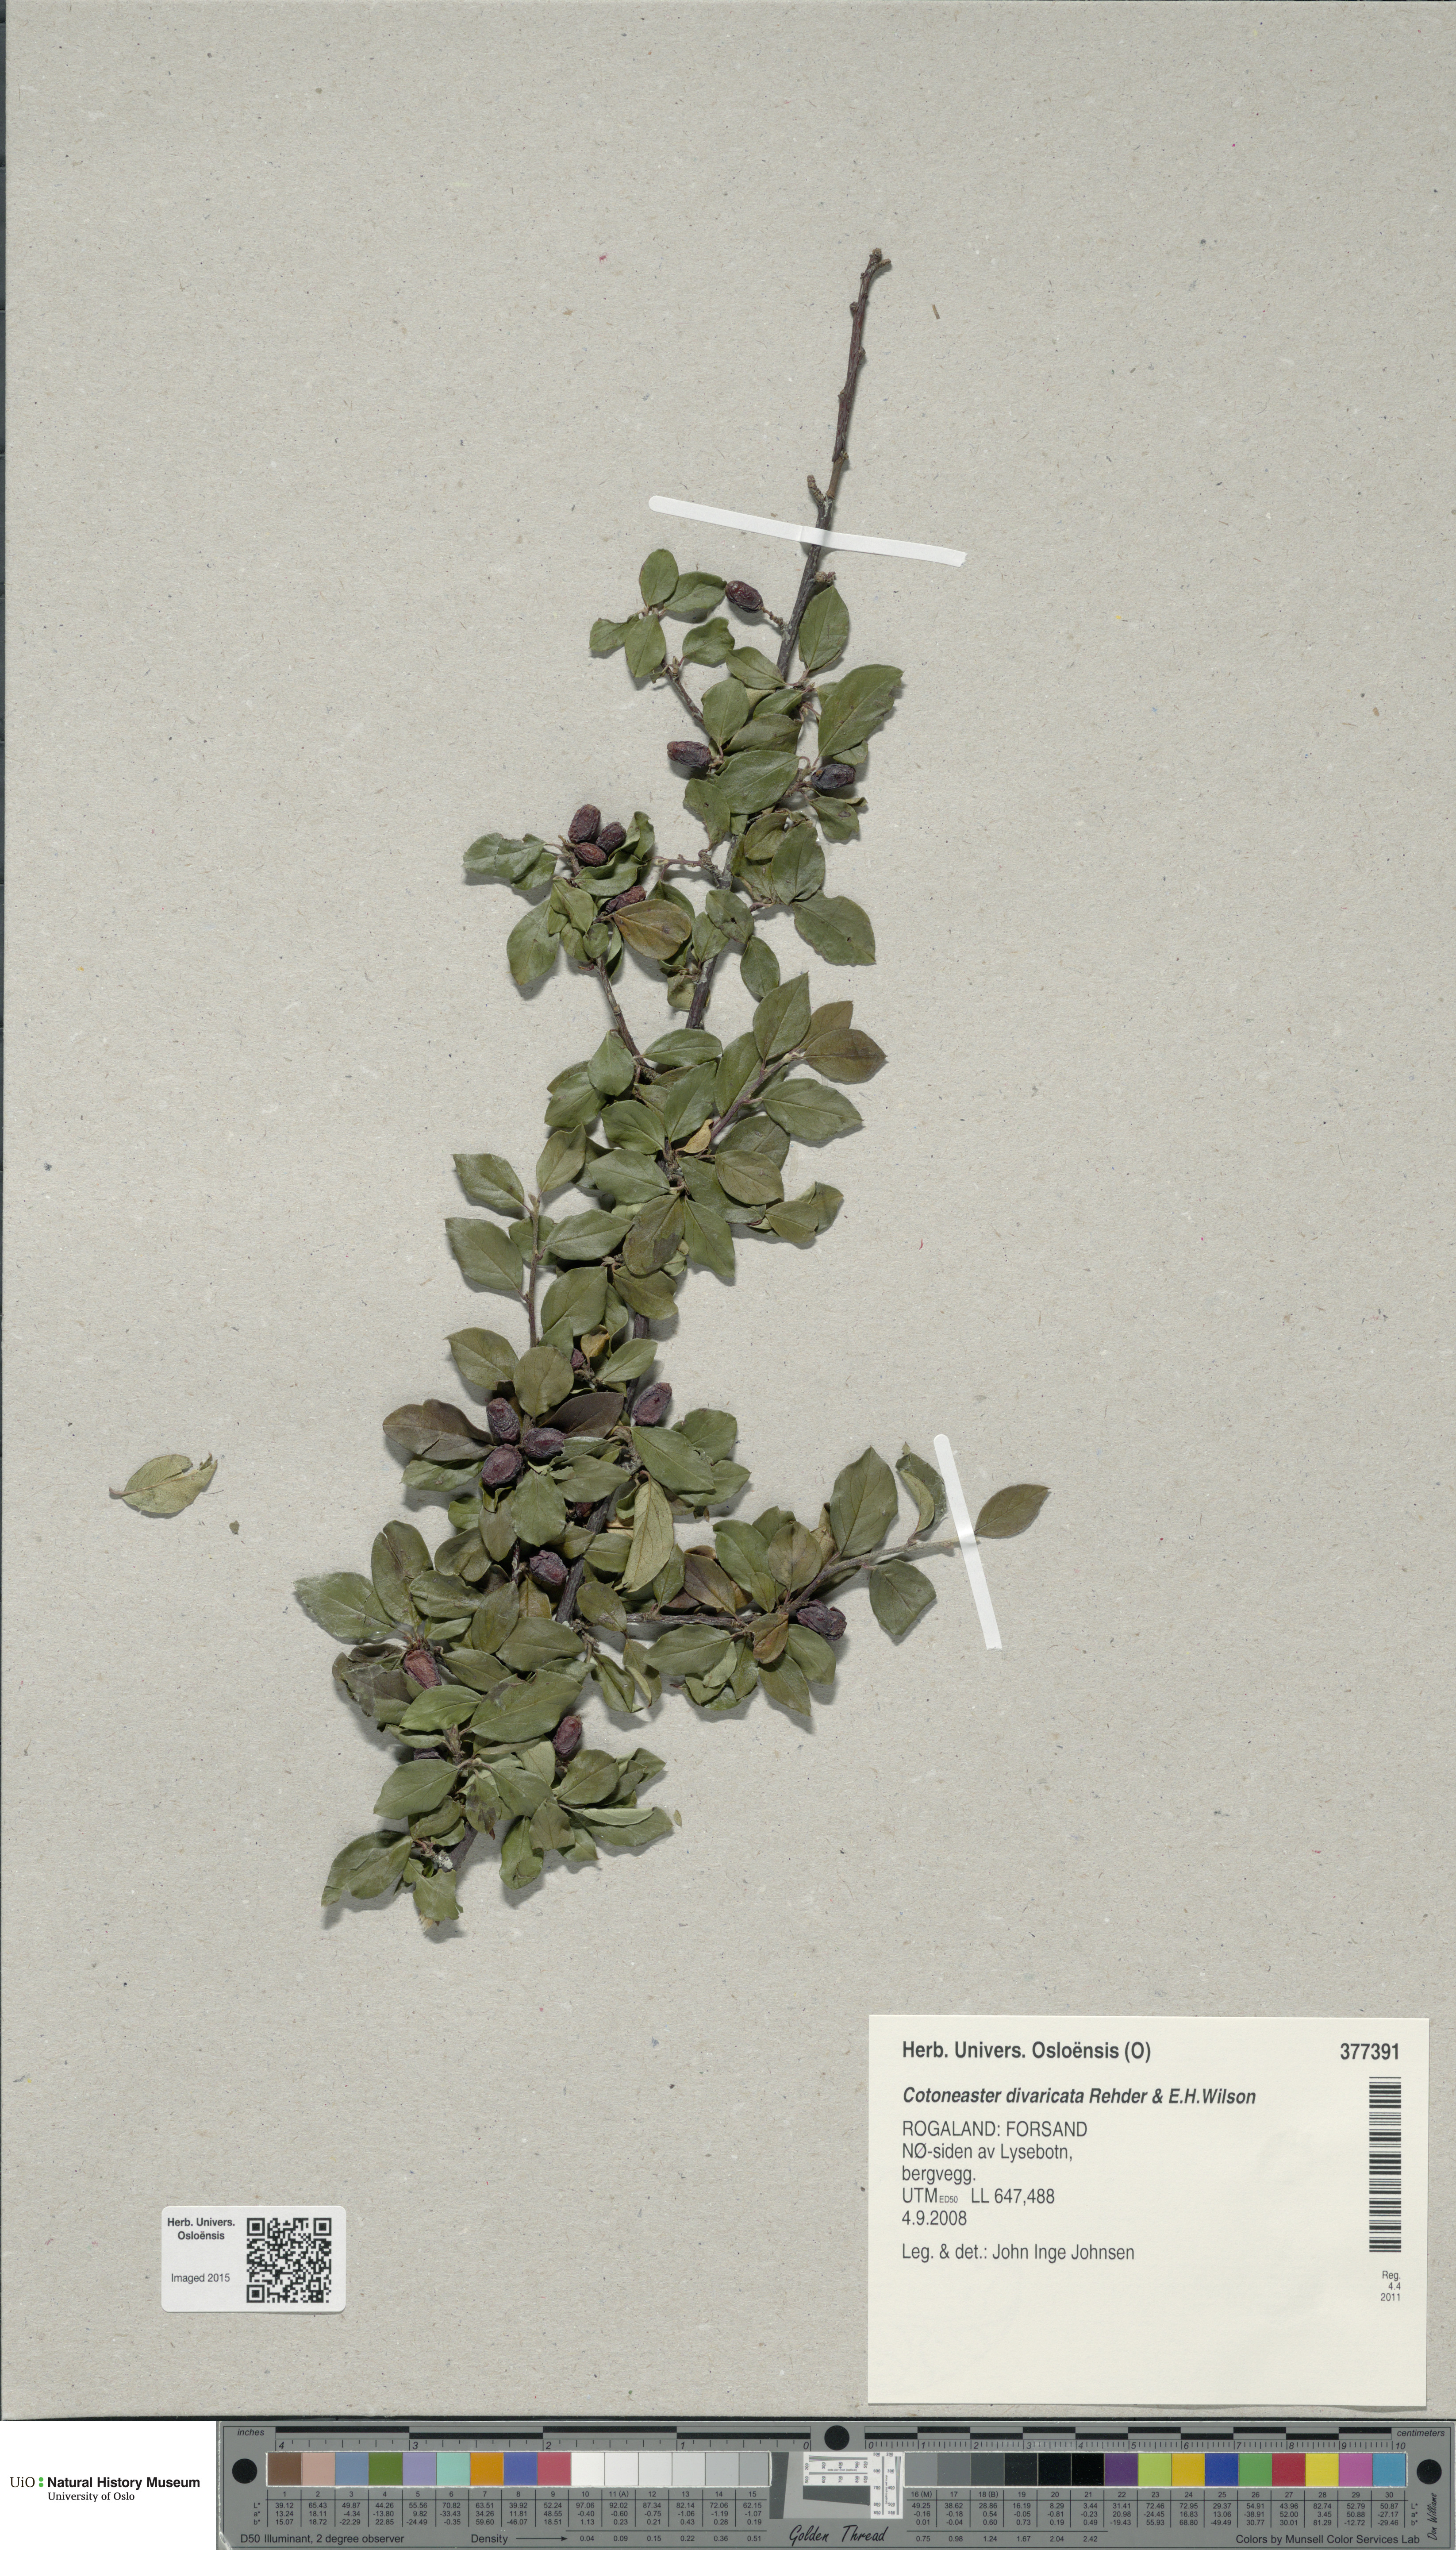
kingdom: Plantae
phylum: Tracheophyta
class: Magnoliopsida
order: Rosales
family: Rosaceae
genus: Cotoneaster
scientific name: Cotoneaster divaricatus
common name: Spreading cotoneaster
